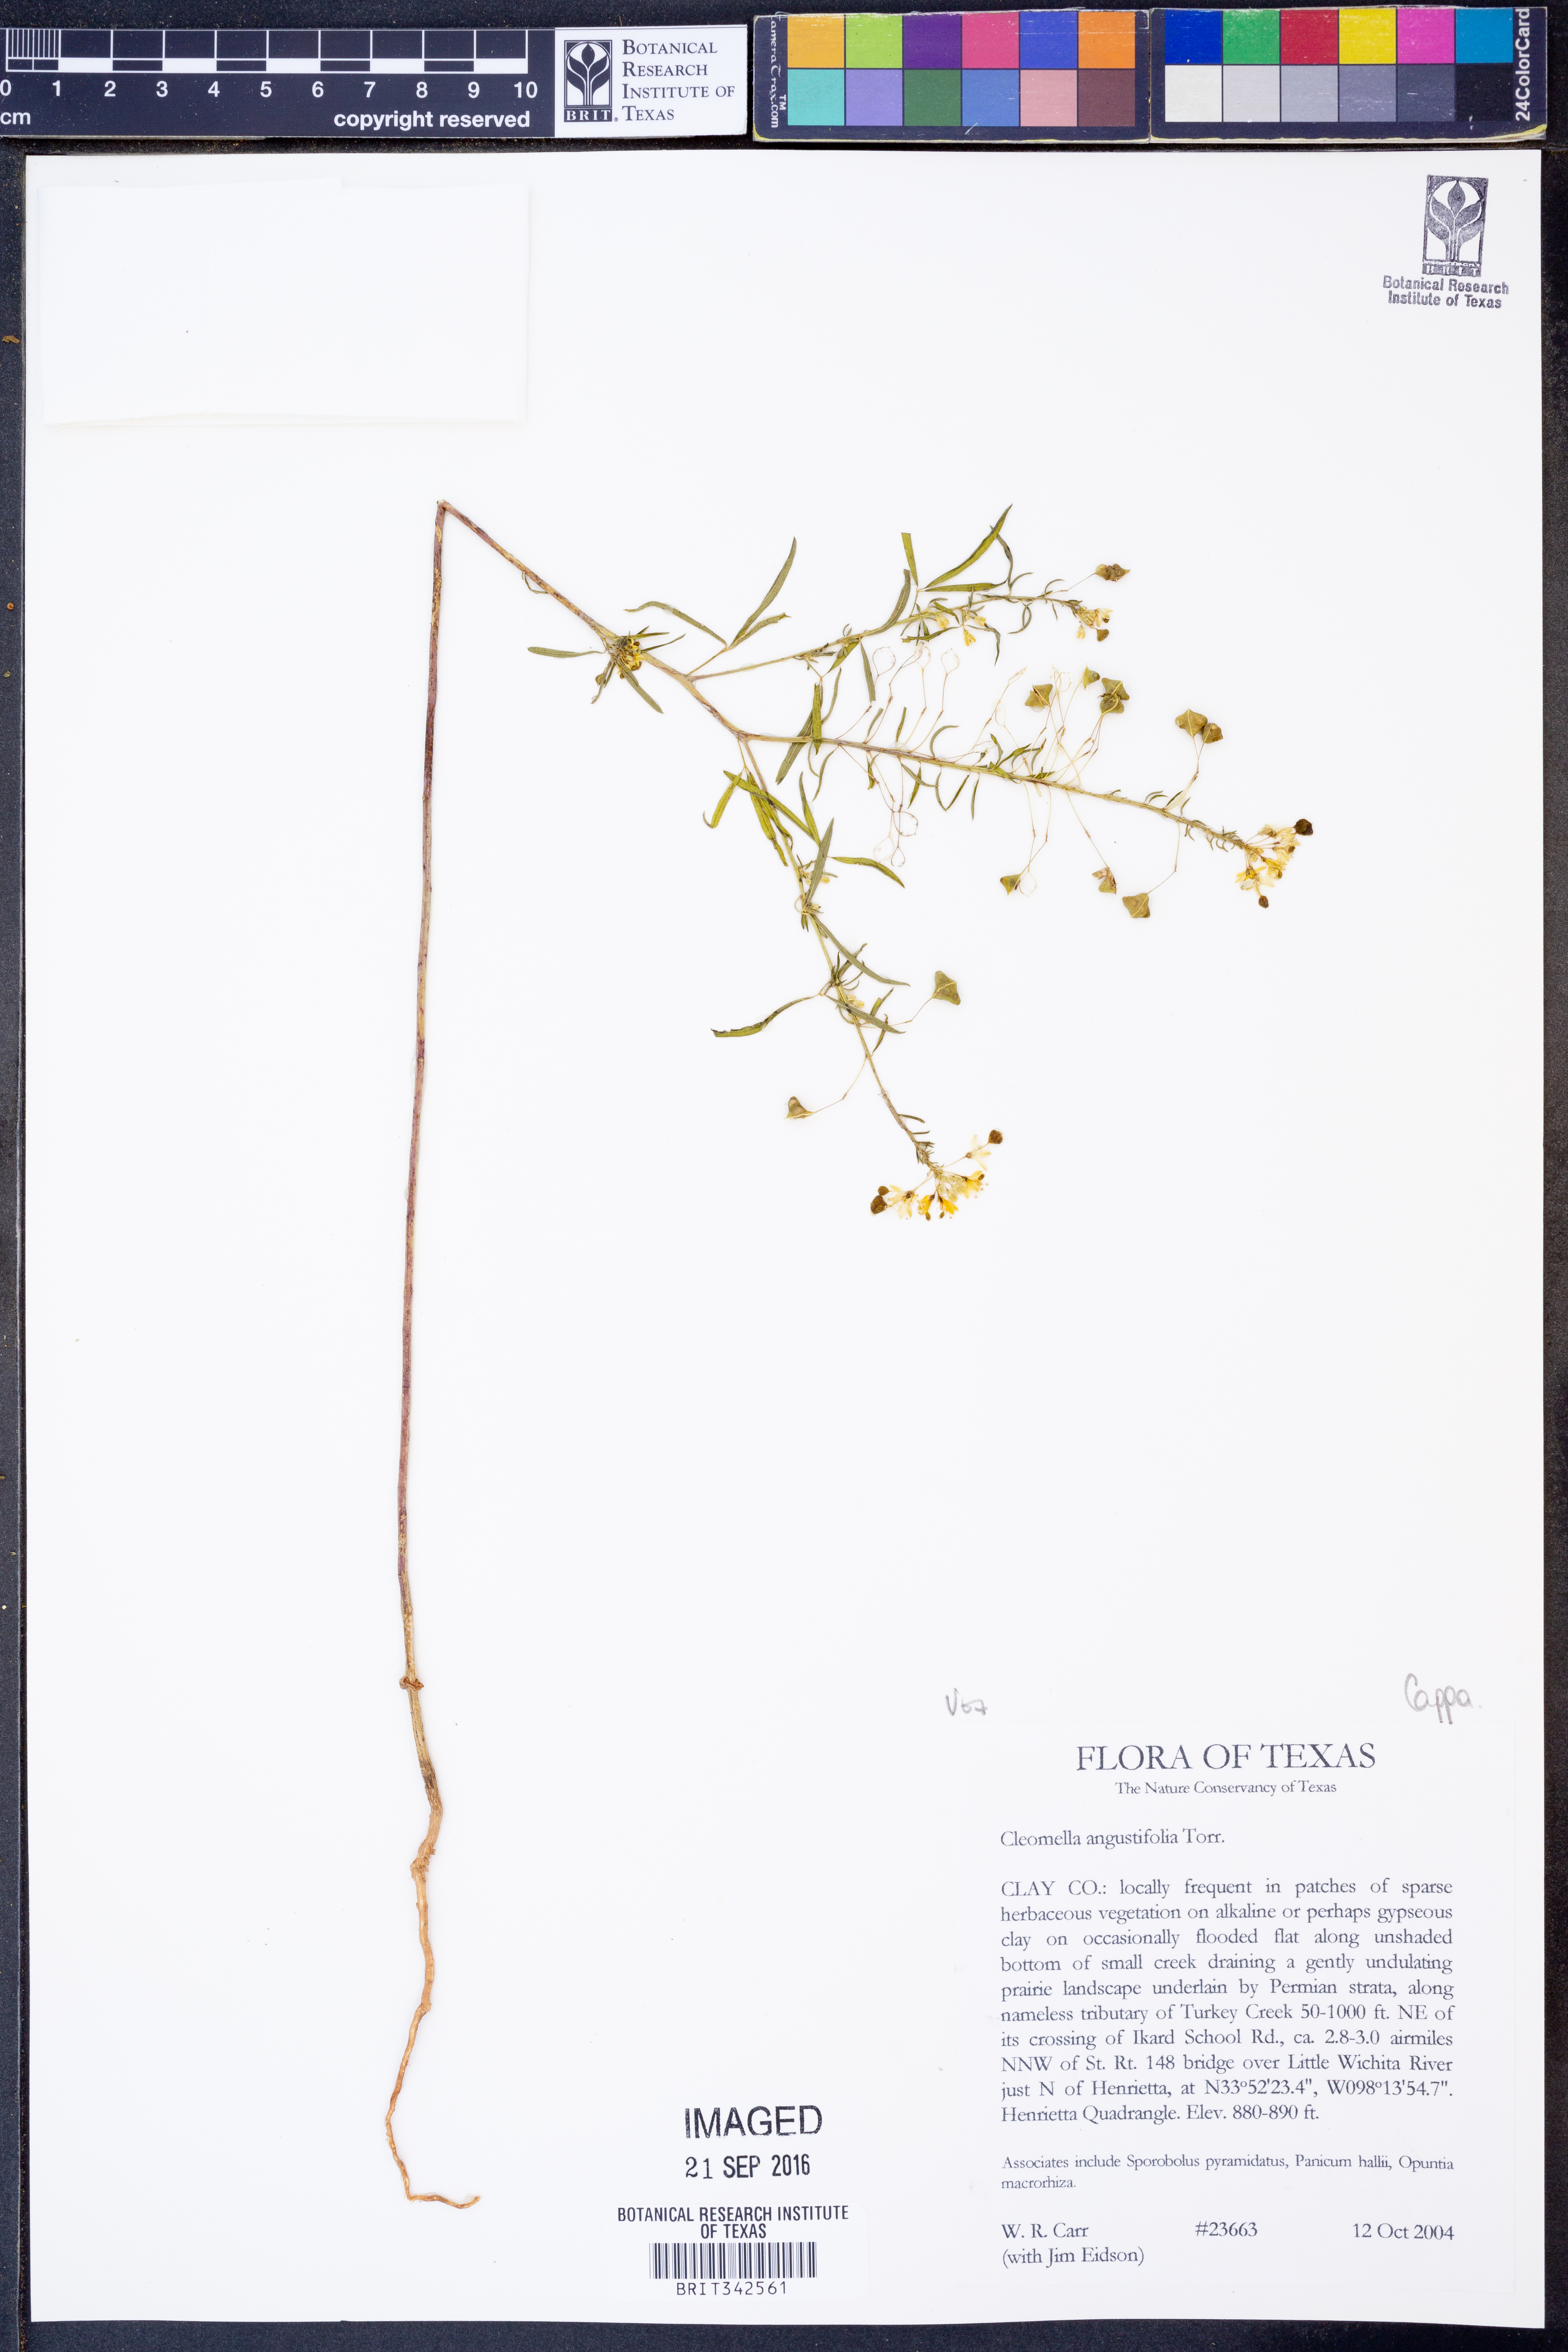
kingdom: Plantae
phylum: Tracheophyta
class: Magnoliopsida
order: Brassicales
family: Cleomaceae
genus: Cleomella
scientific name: Cleomella angustifolia
